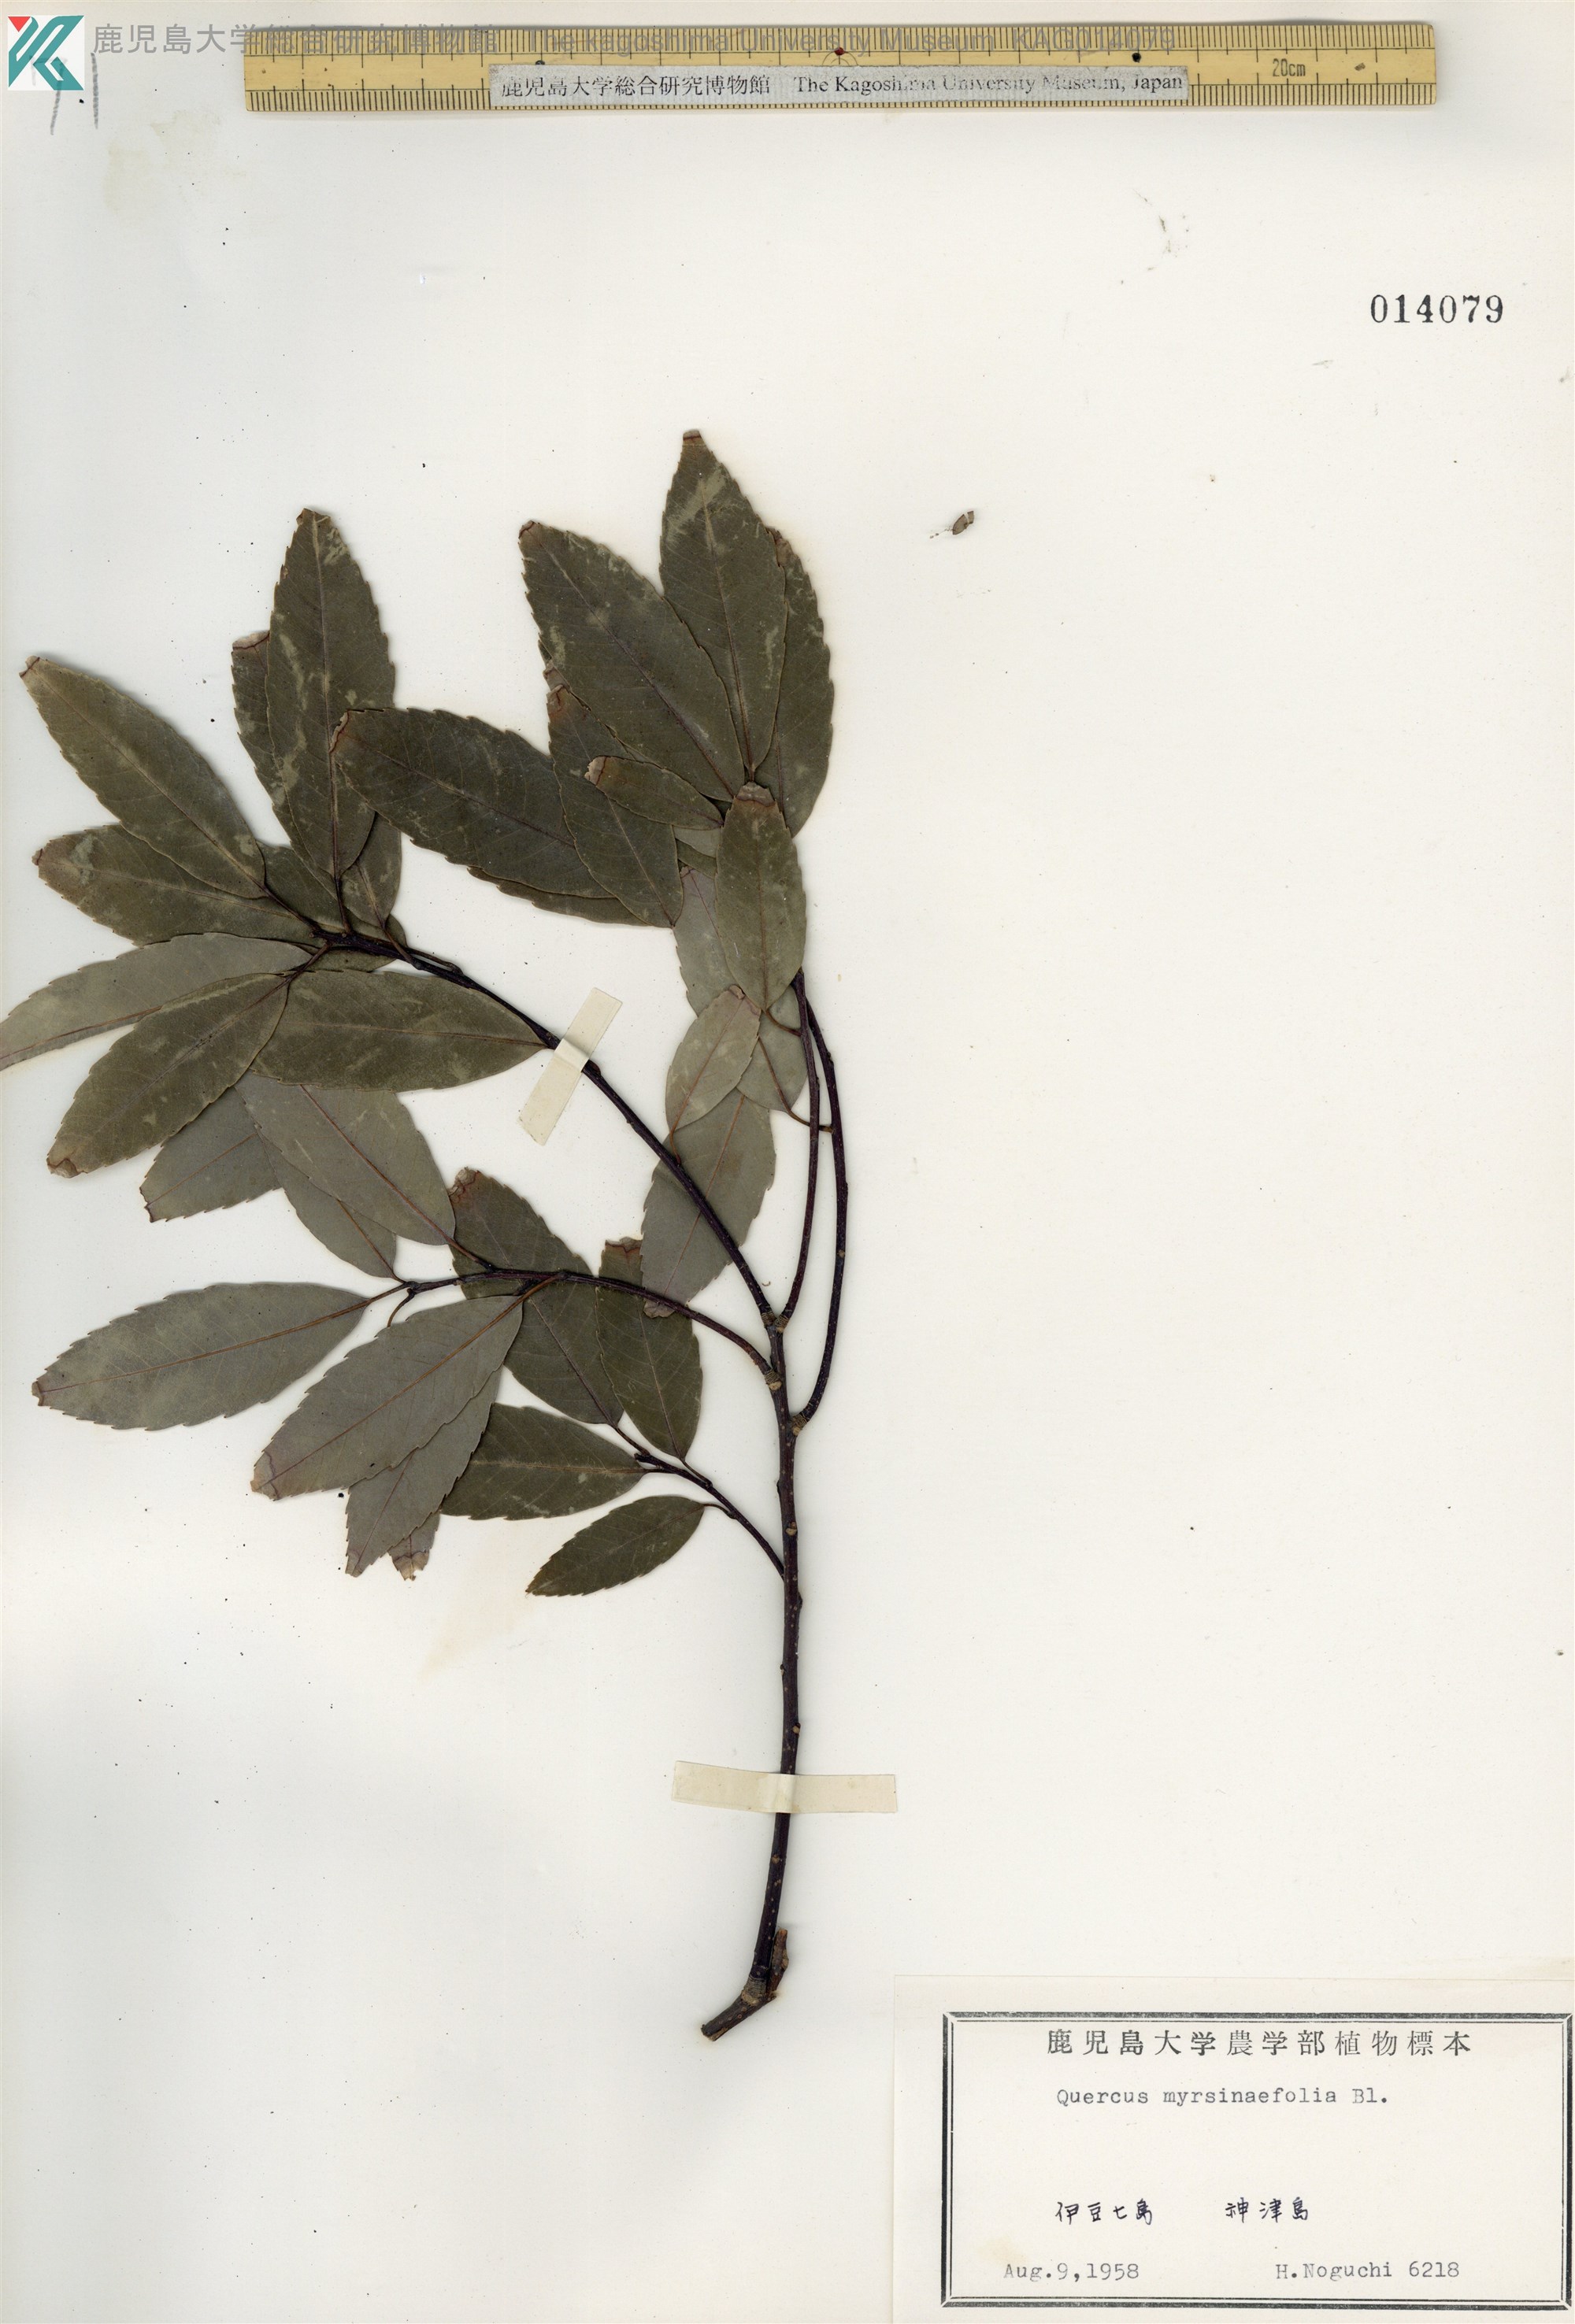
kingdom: Plantae
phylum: Tracheophyta
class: Magnoliopsida
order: Fagales
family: Fagaceae
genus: Quercus
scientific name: Quercus myrsinaefolia
